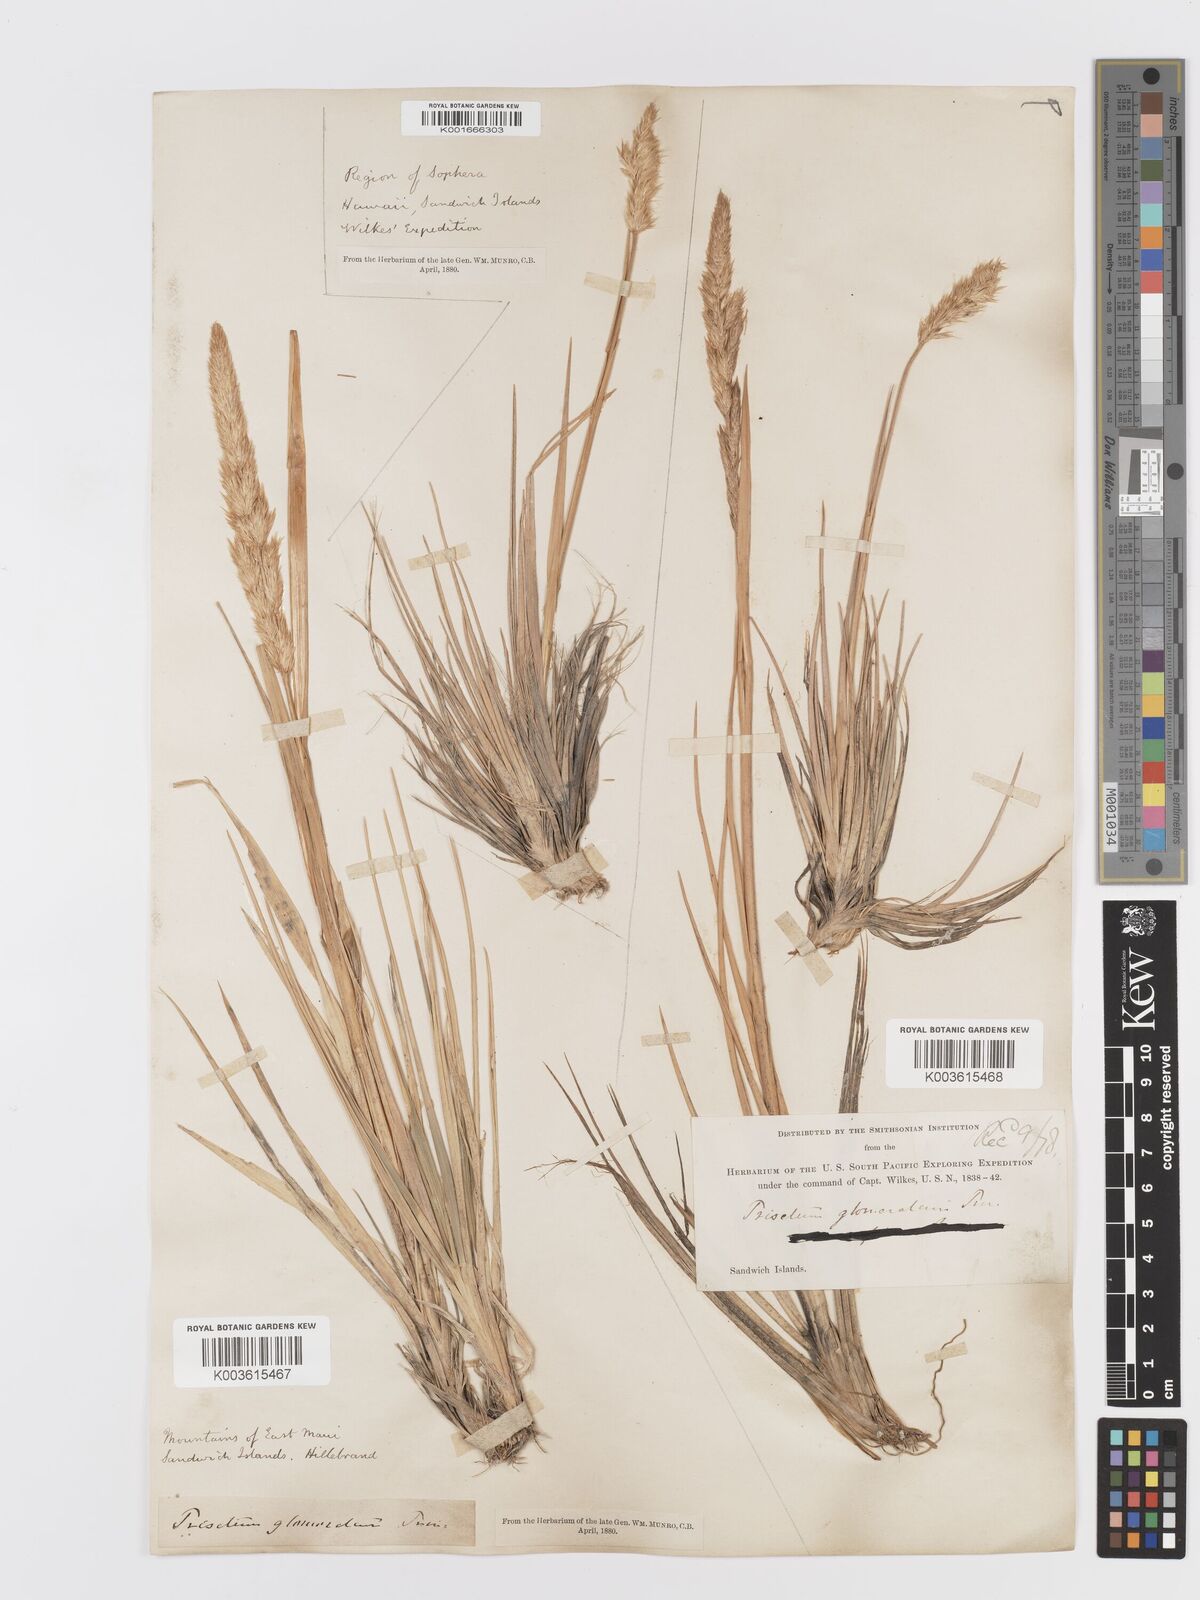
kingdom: Plantae
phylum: Tracheophyta
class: Liliopsida
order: Poales
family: Poaceae
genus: Trisetum
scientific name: Trisetum glomeratum
